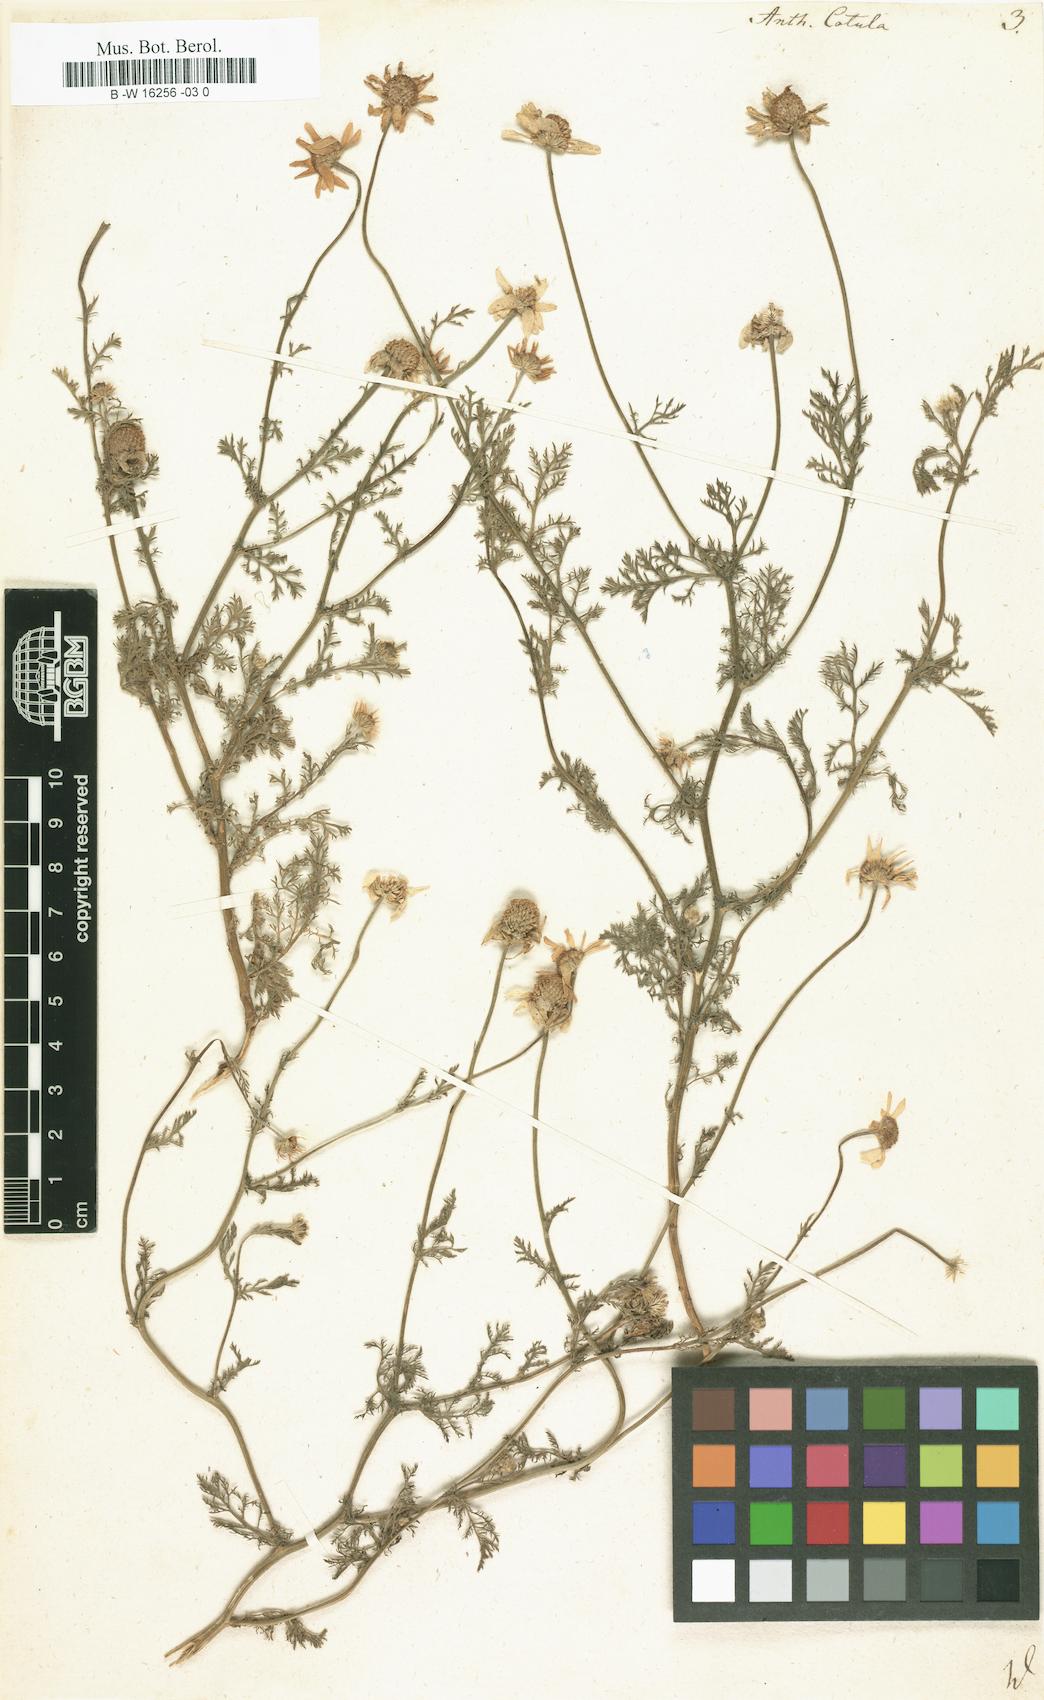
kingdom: Plantae
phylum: Tracheophyta
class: Magnoliopsida
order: Asterales
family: Asteraceae
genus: Anthemis
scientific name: Anthemis cotula
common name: Stinking chamomile
